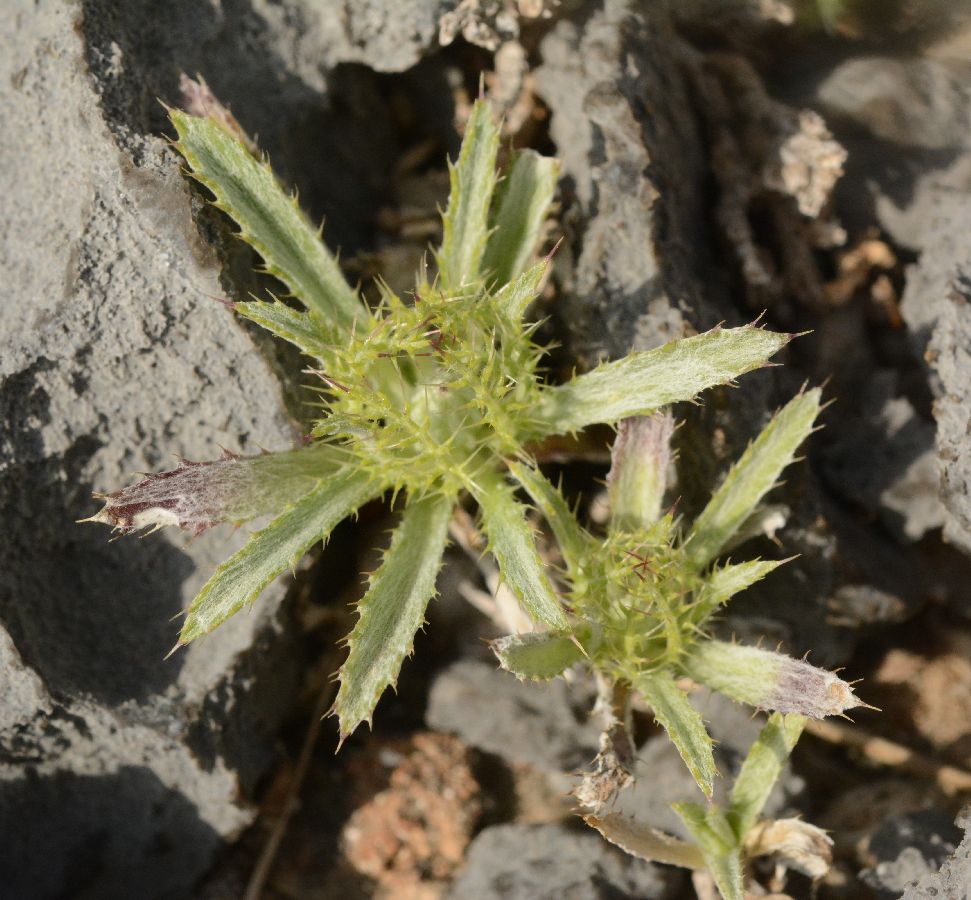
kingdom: Plantae
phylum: Tracheophyta
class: Magnoliopsida
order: Asterales
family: Asteraceae
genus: Atractylis
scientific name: Atractylis cancellata
